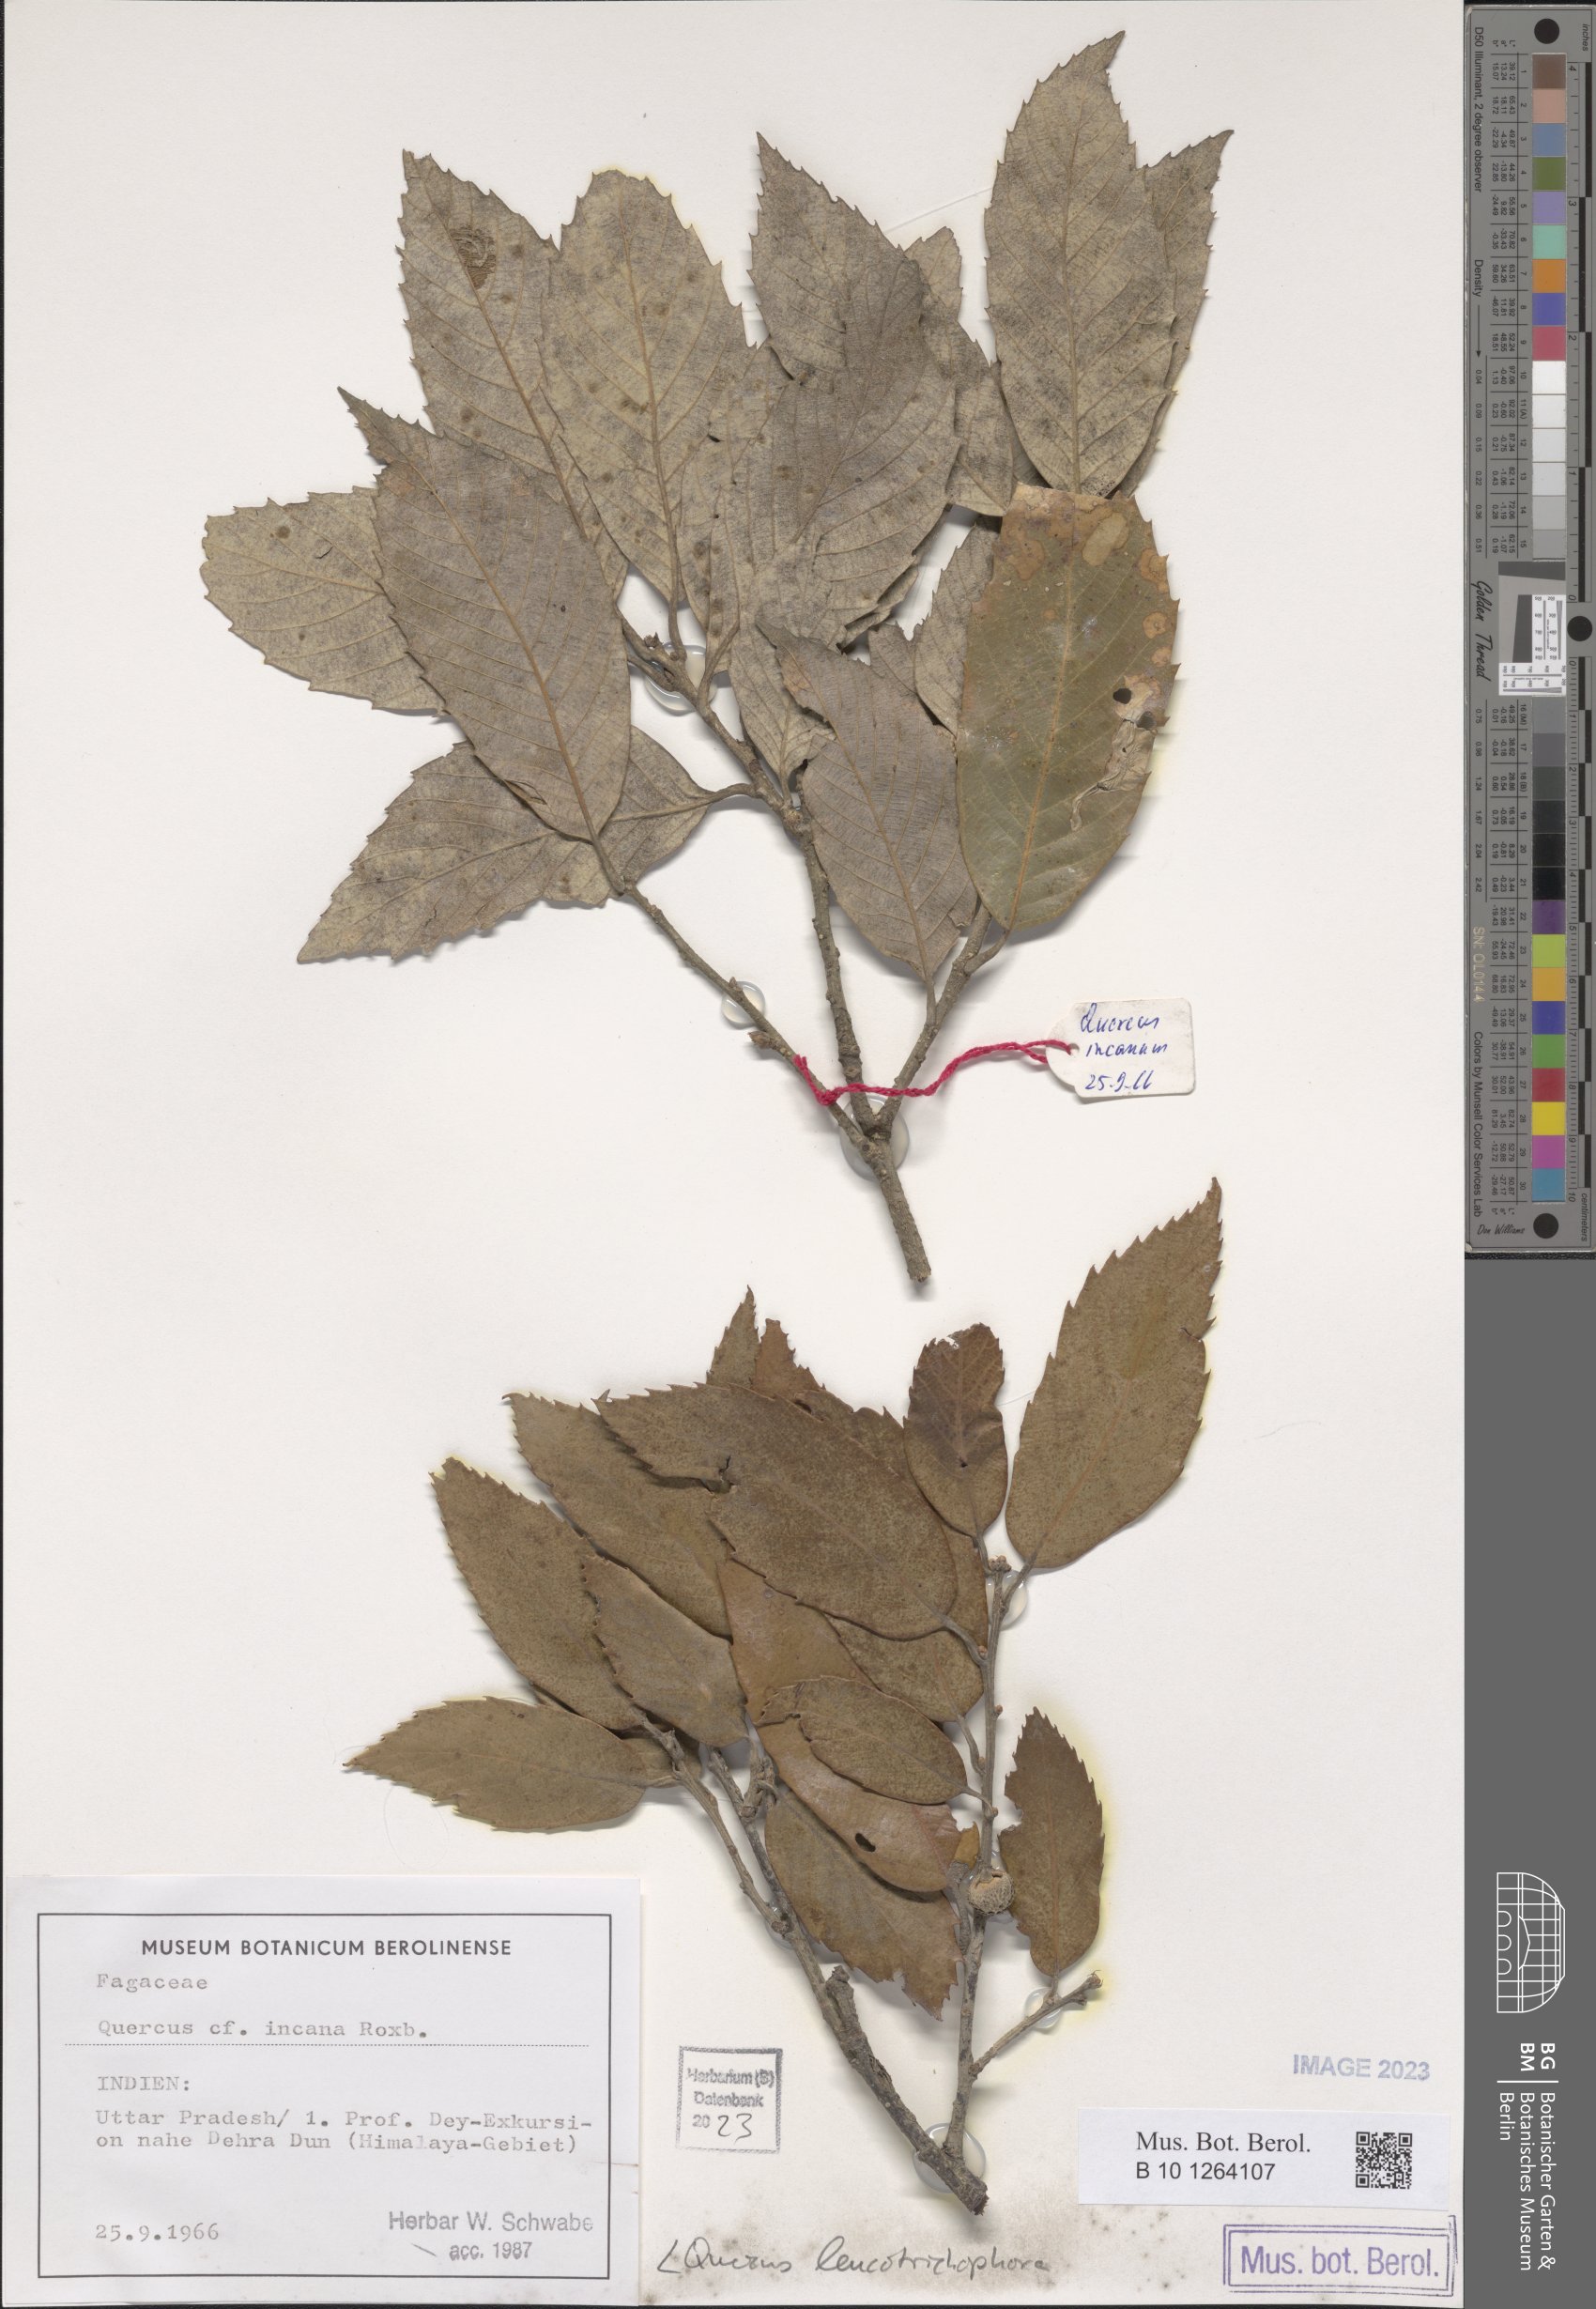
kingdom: Plantae
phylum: Tracheophyta
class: Magnoliopsida
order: Fagales
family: Fagaceae
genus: Quercus
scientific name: Quercus leucotrichophora
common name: Banj oak
